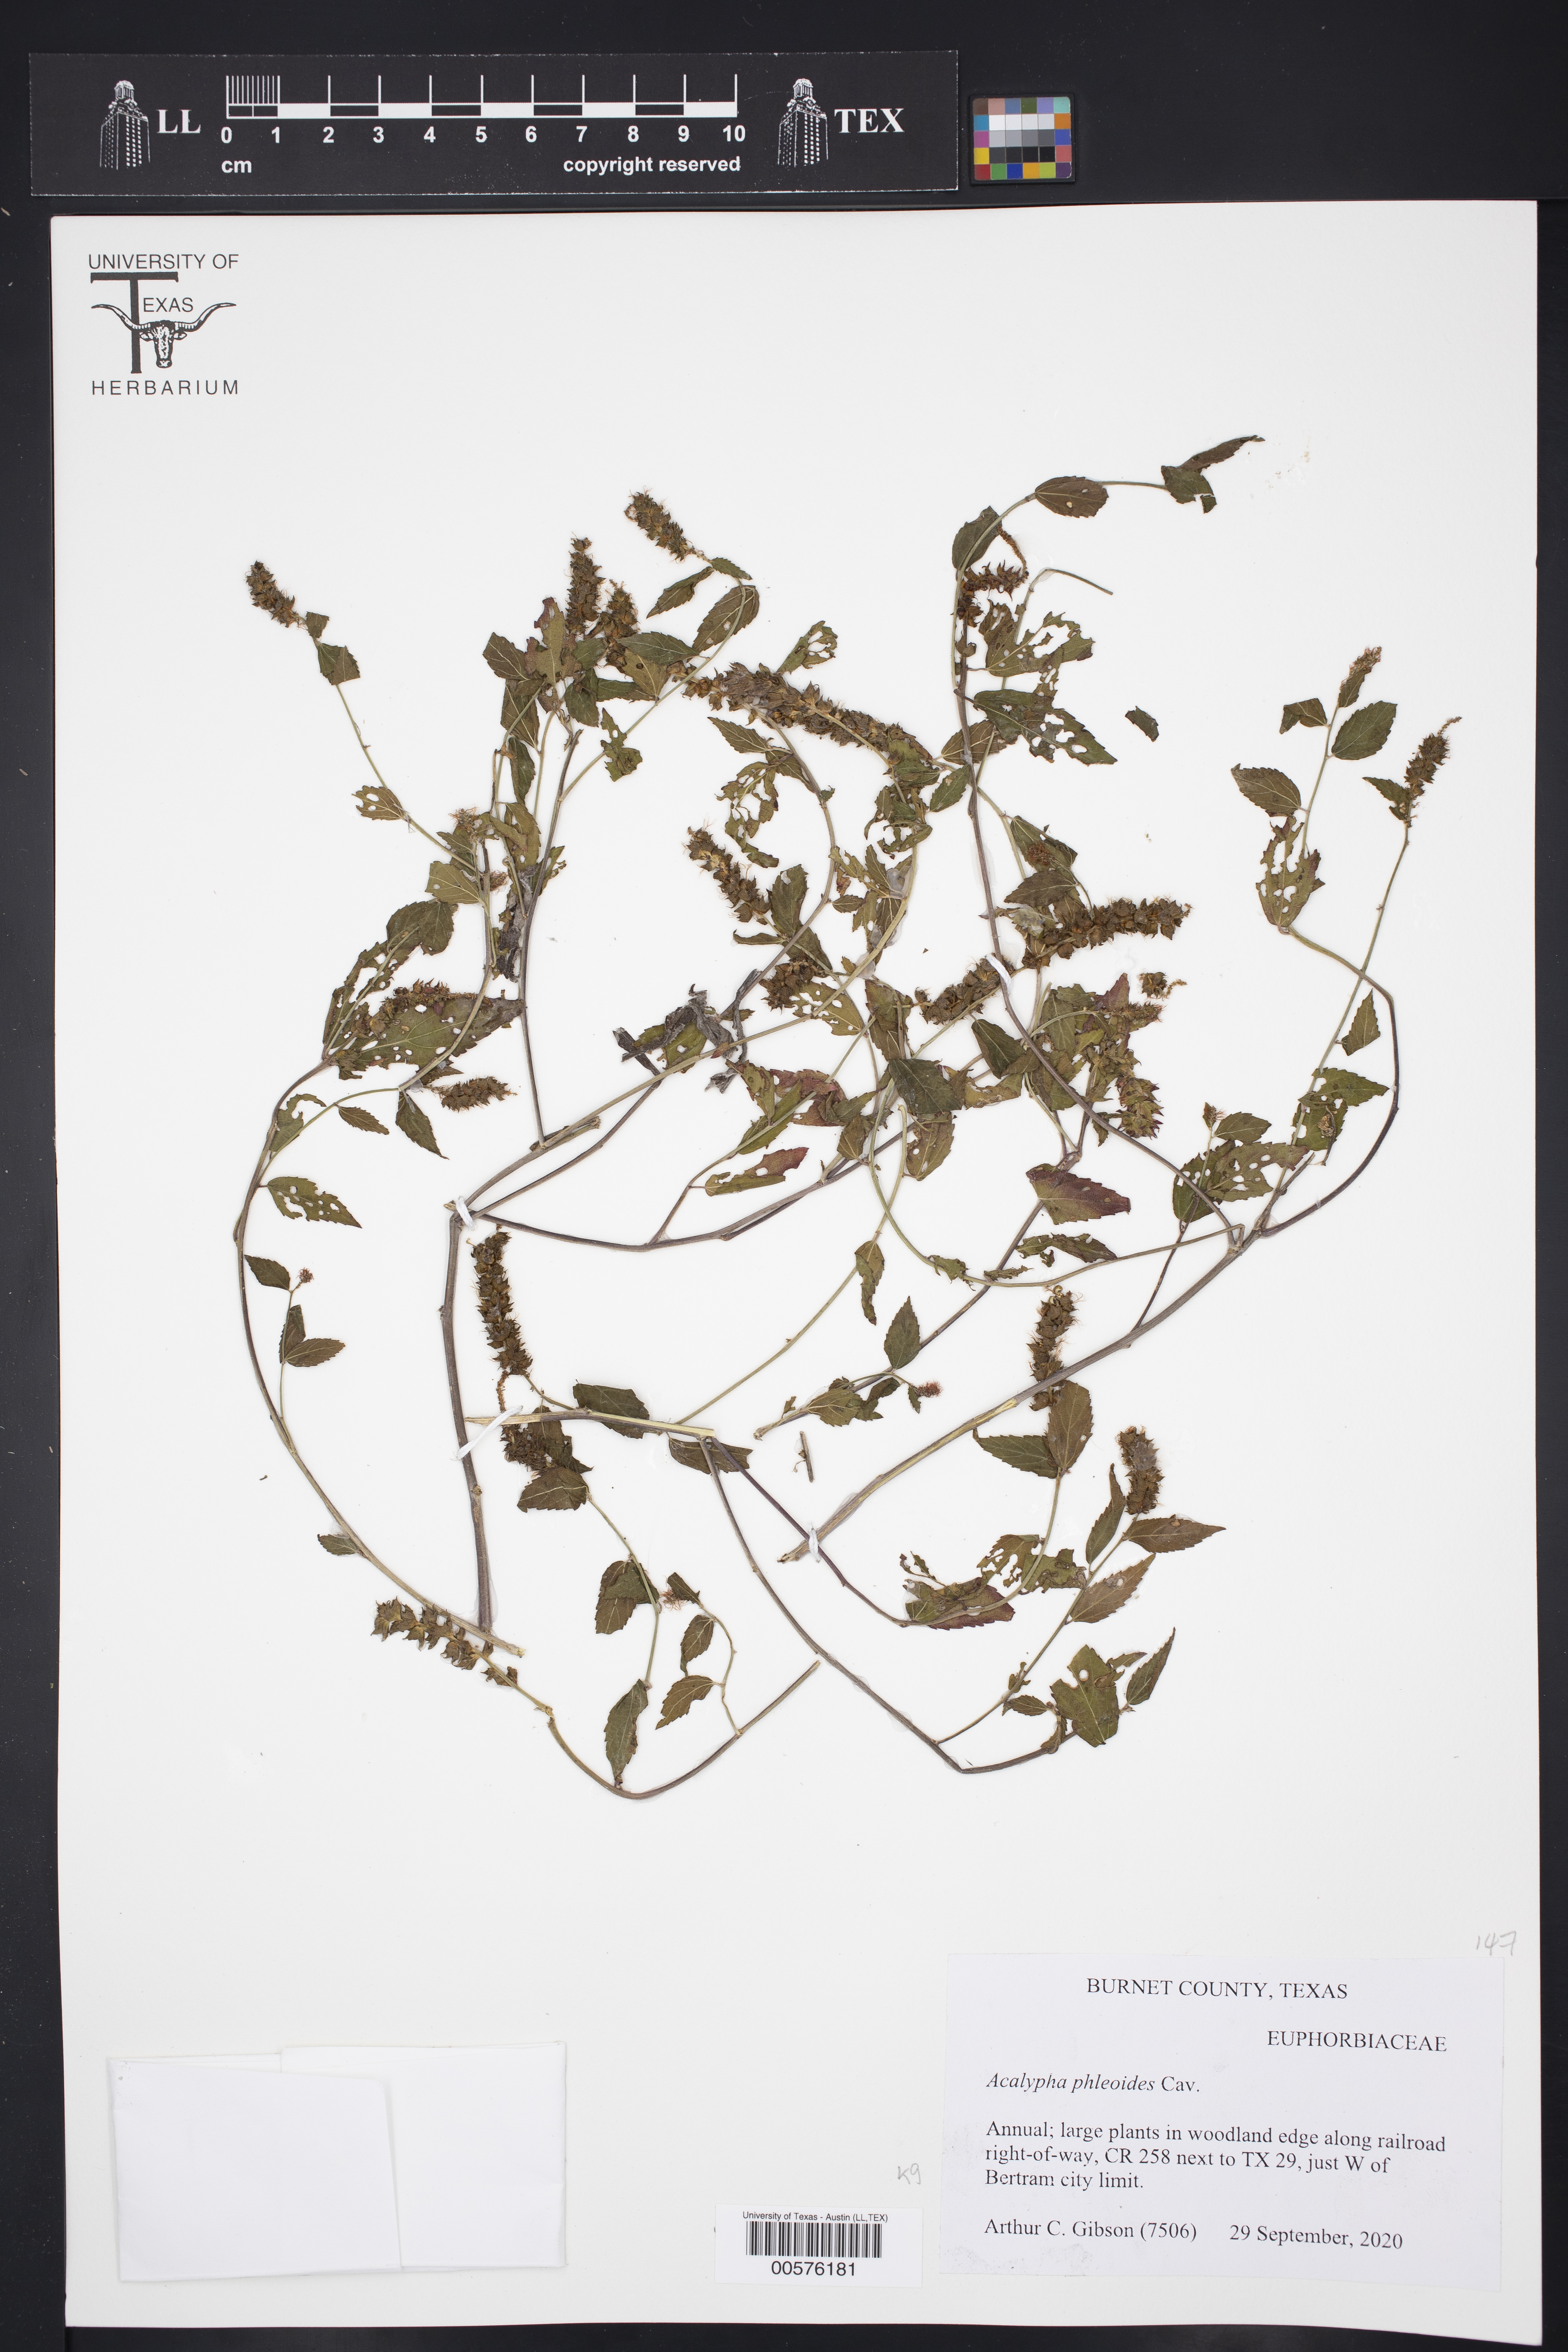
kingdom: Plantae
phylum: Tracheophyta
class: Magnoliopsida
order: Malpighiales
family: Euphorbiaceae
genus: Acalypha
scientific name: Acalypha phleoides
